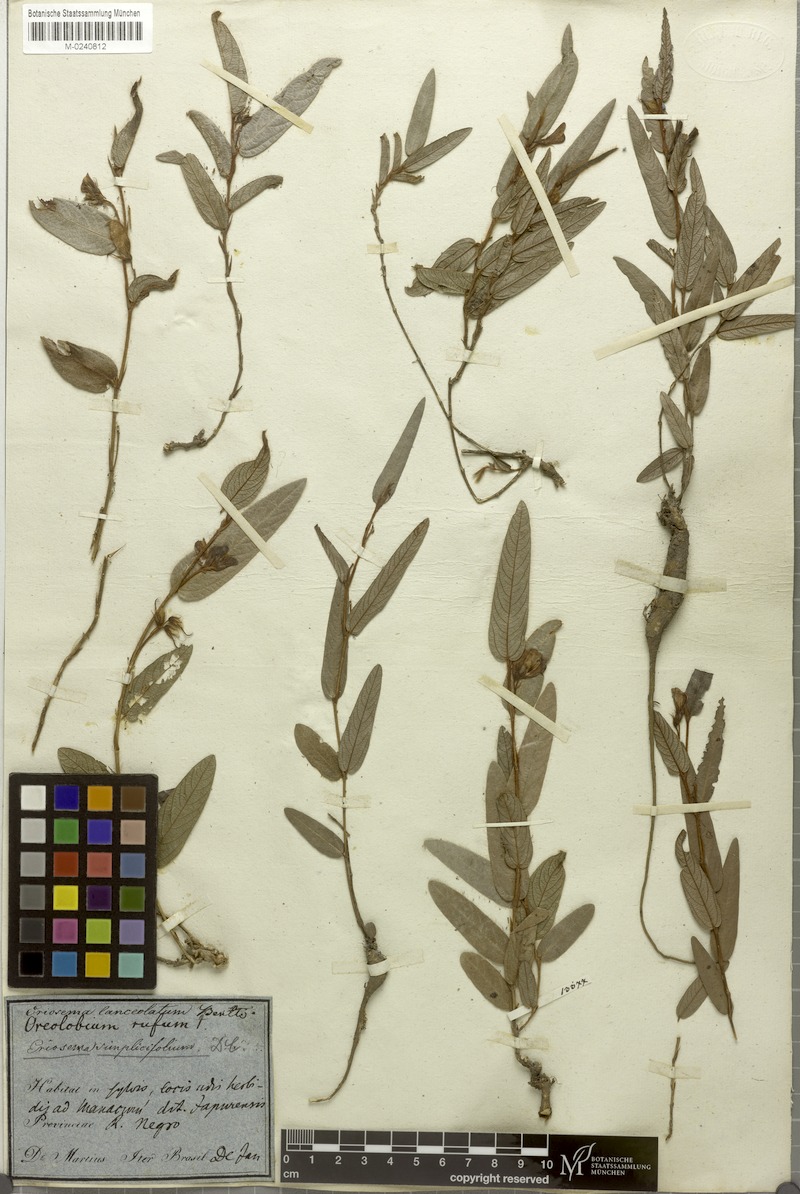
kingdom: Plantae
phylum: Tracheophyta
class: Magnoliopsida
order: Fabales
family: Fabaceae
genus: Eriosema
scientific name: Eriosema simplicifolium
